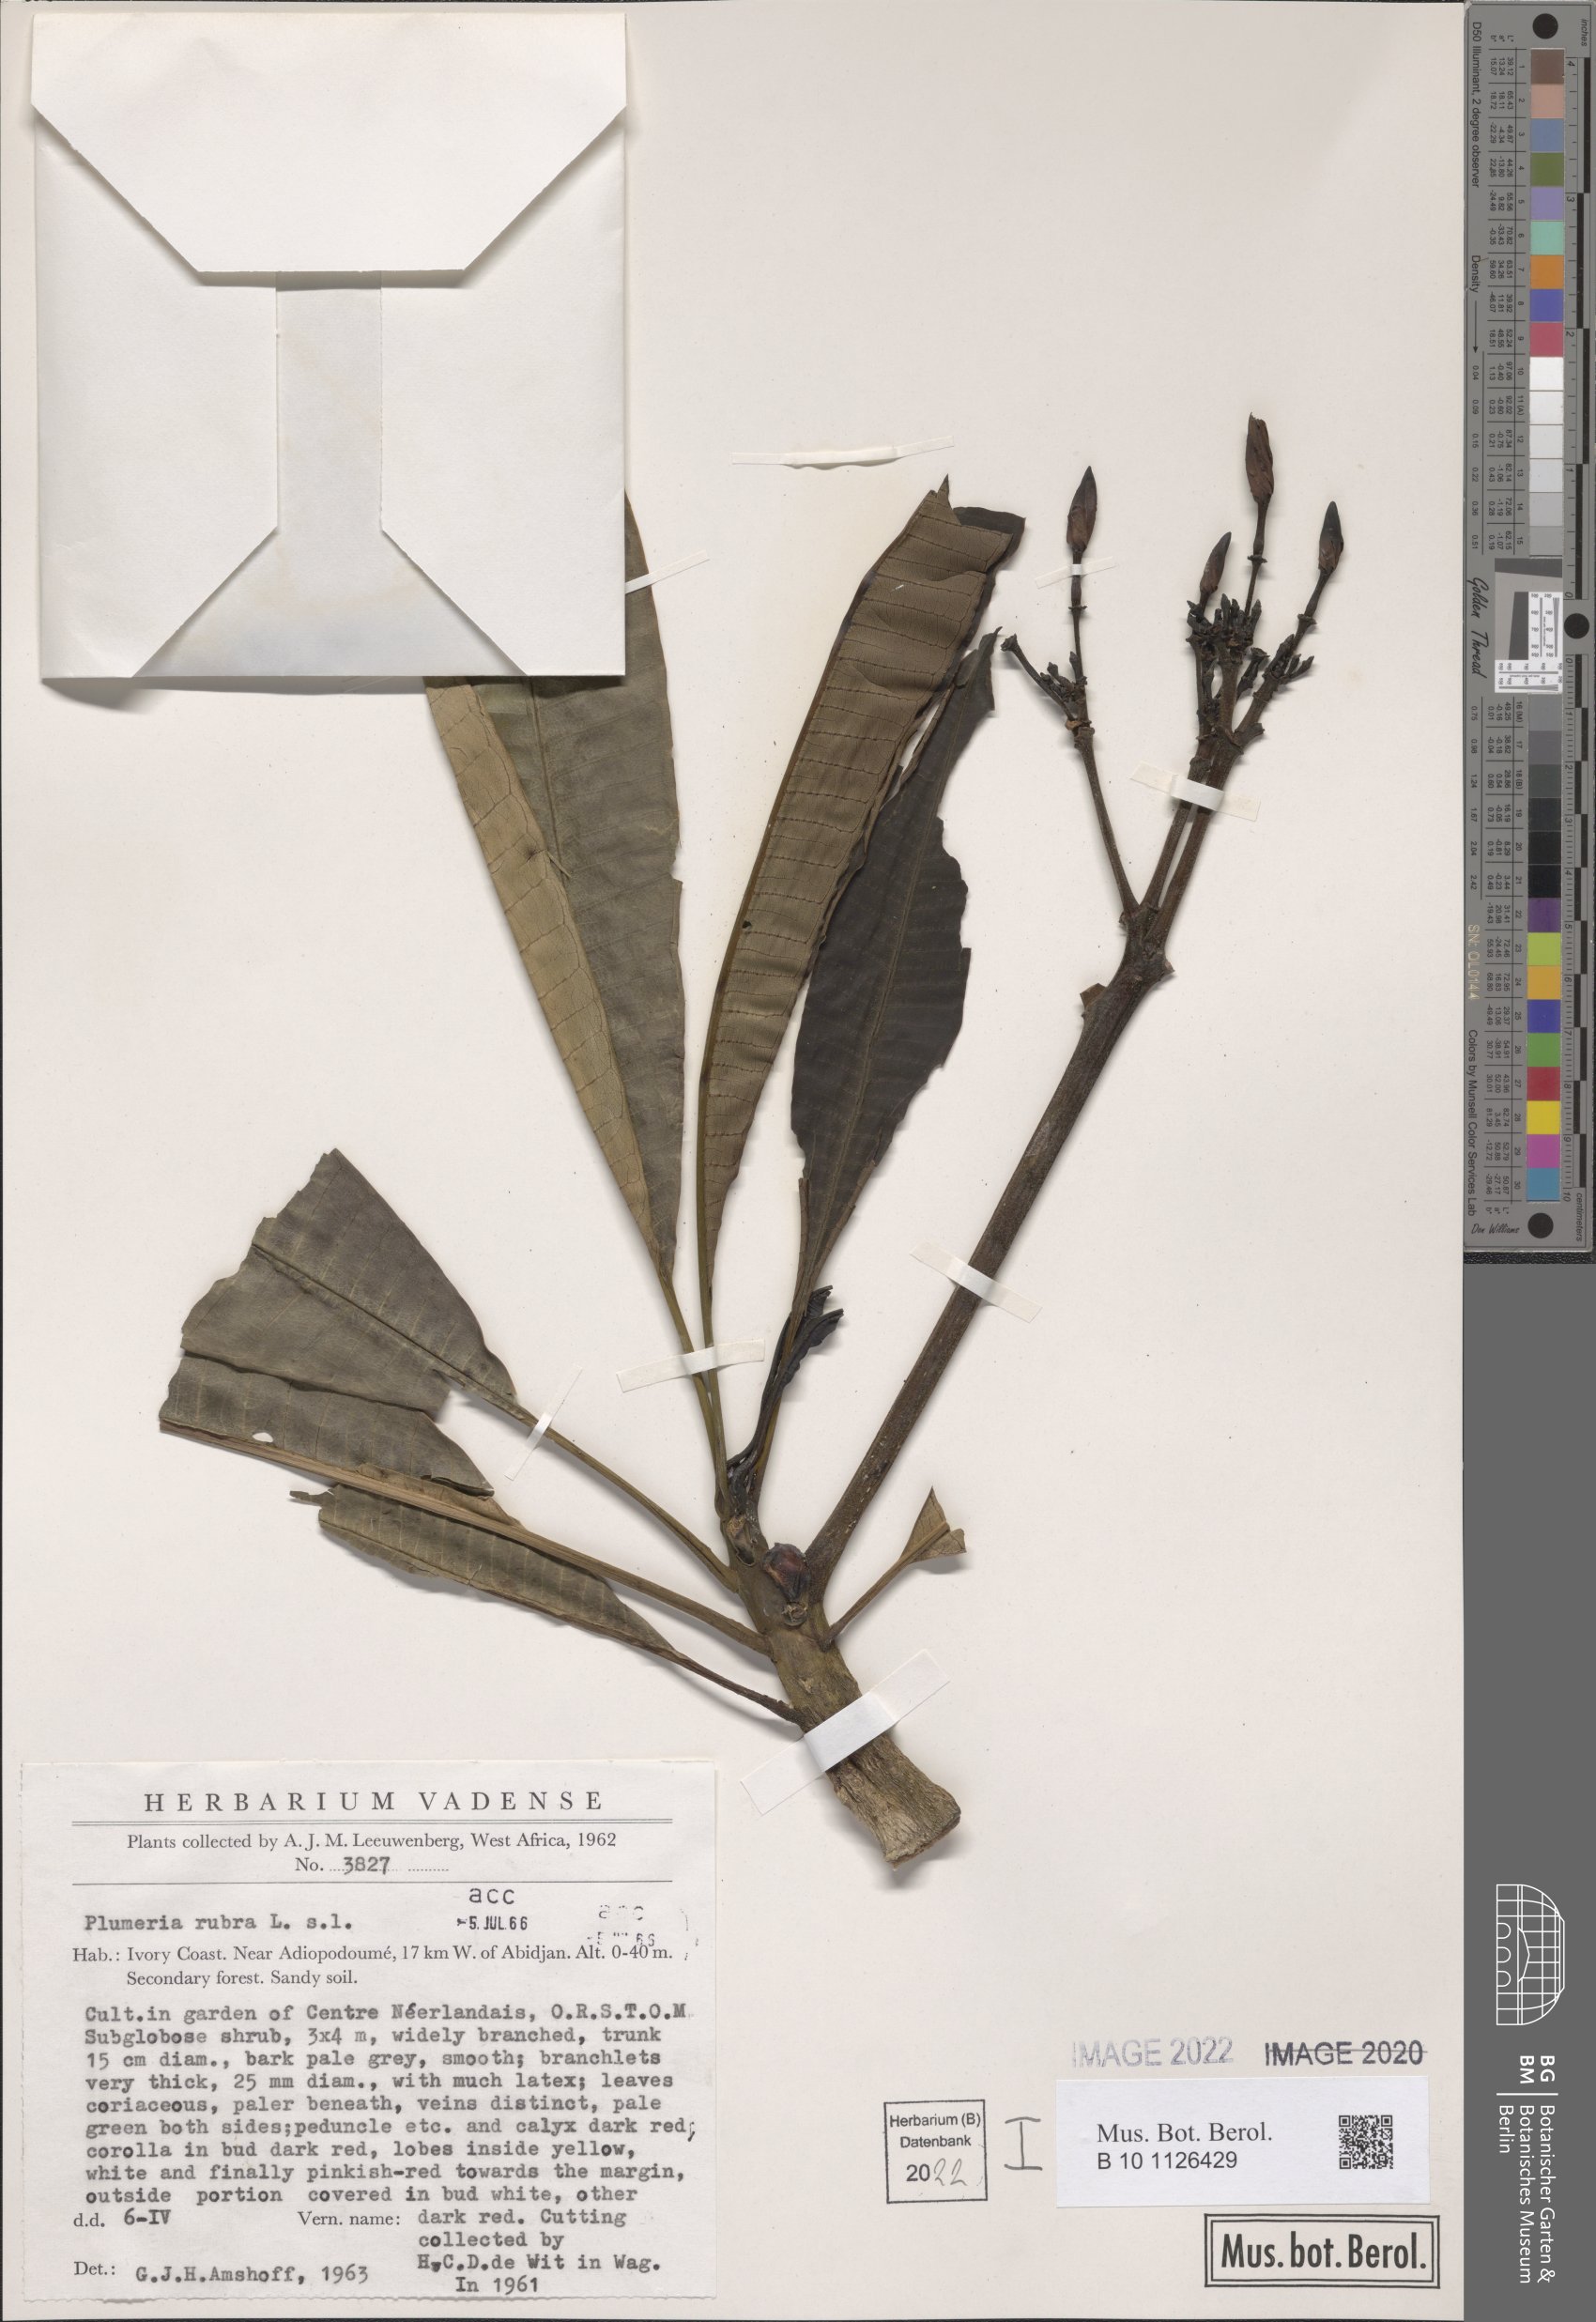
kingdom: Plantae
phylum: Tracheophyta
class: Magnoliopsida
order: Gentianales
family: Apocynaceae
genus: Plumeria
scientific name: Plumeria rubra
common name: Pagoda-tree
